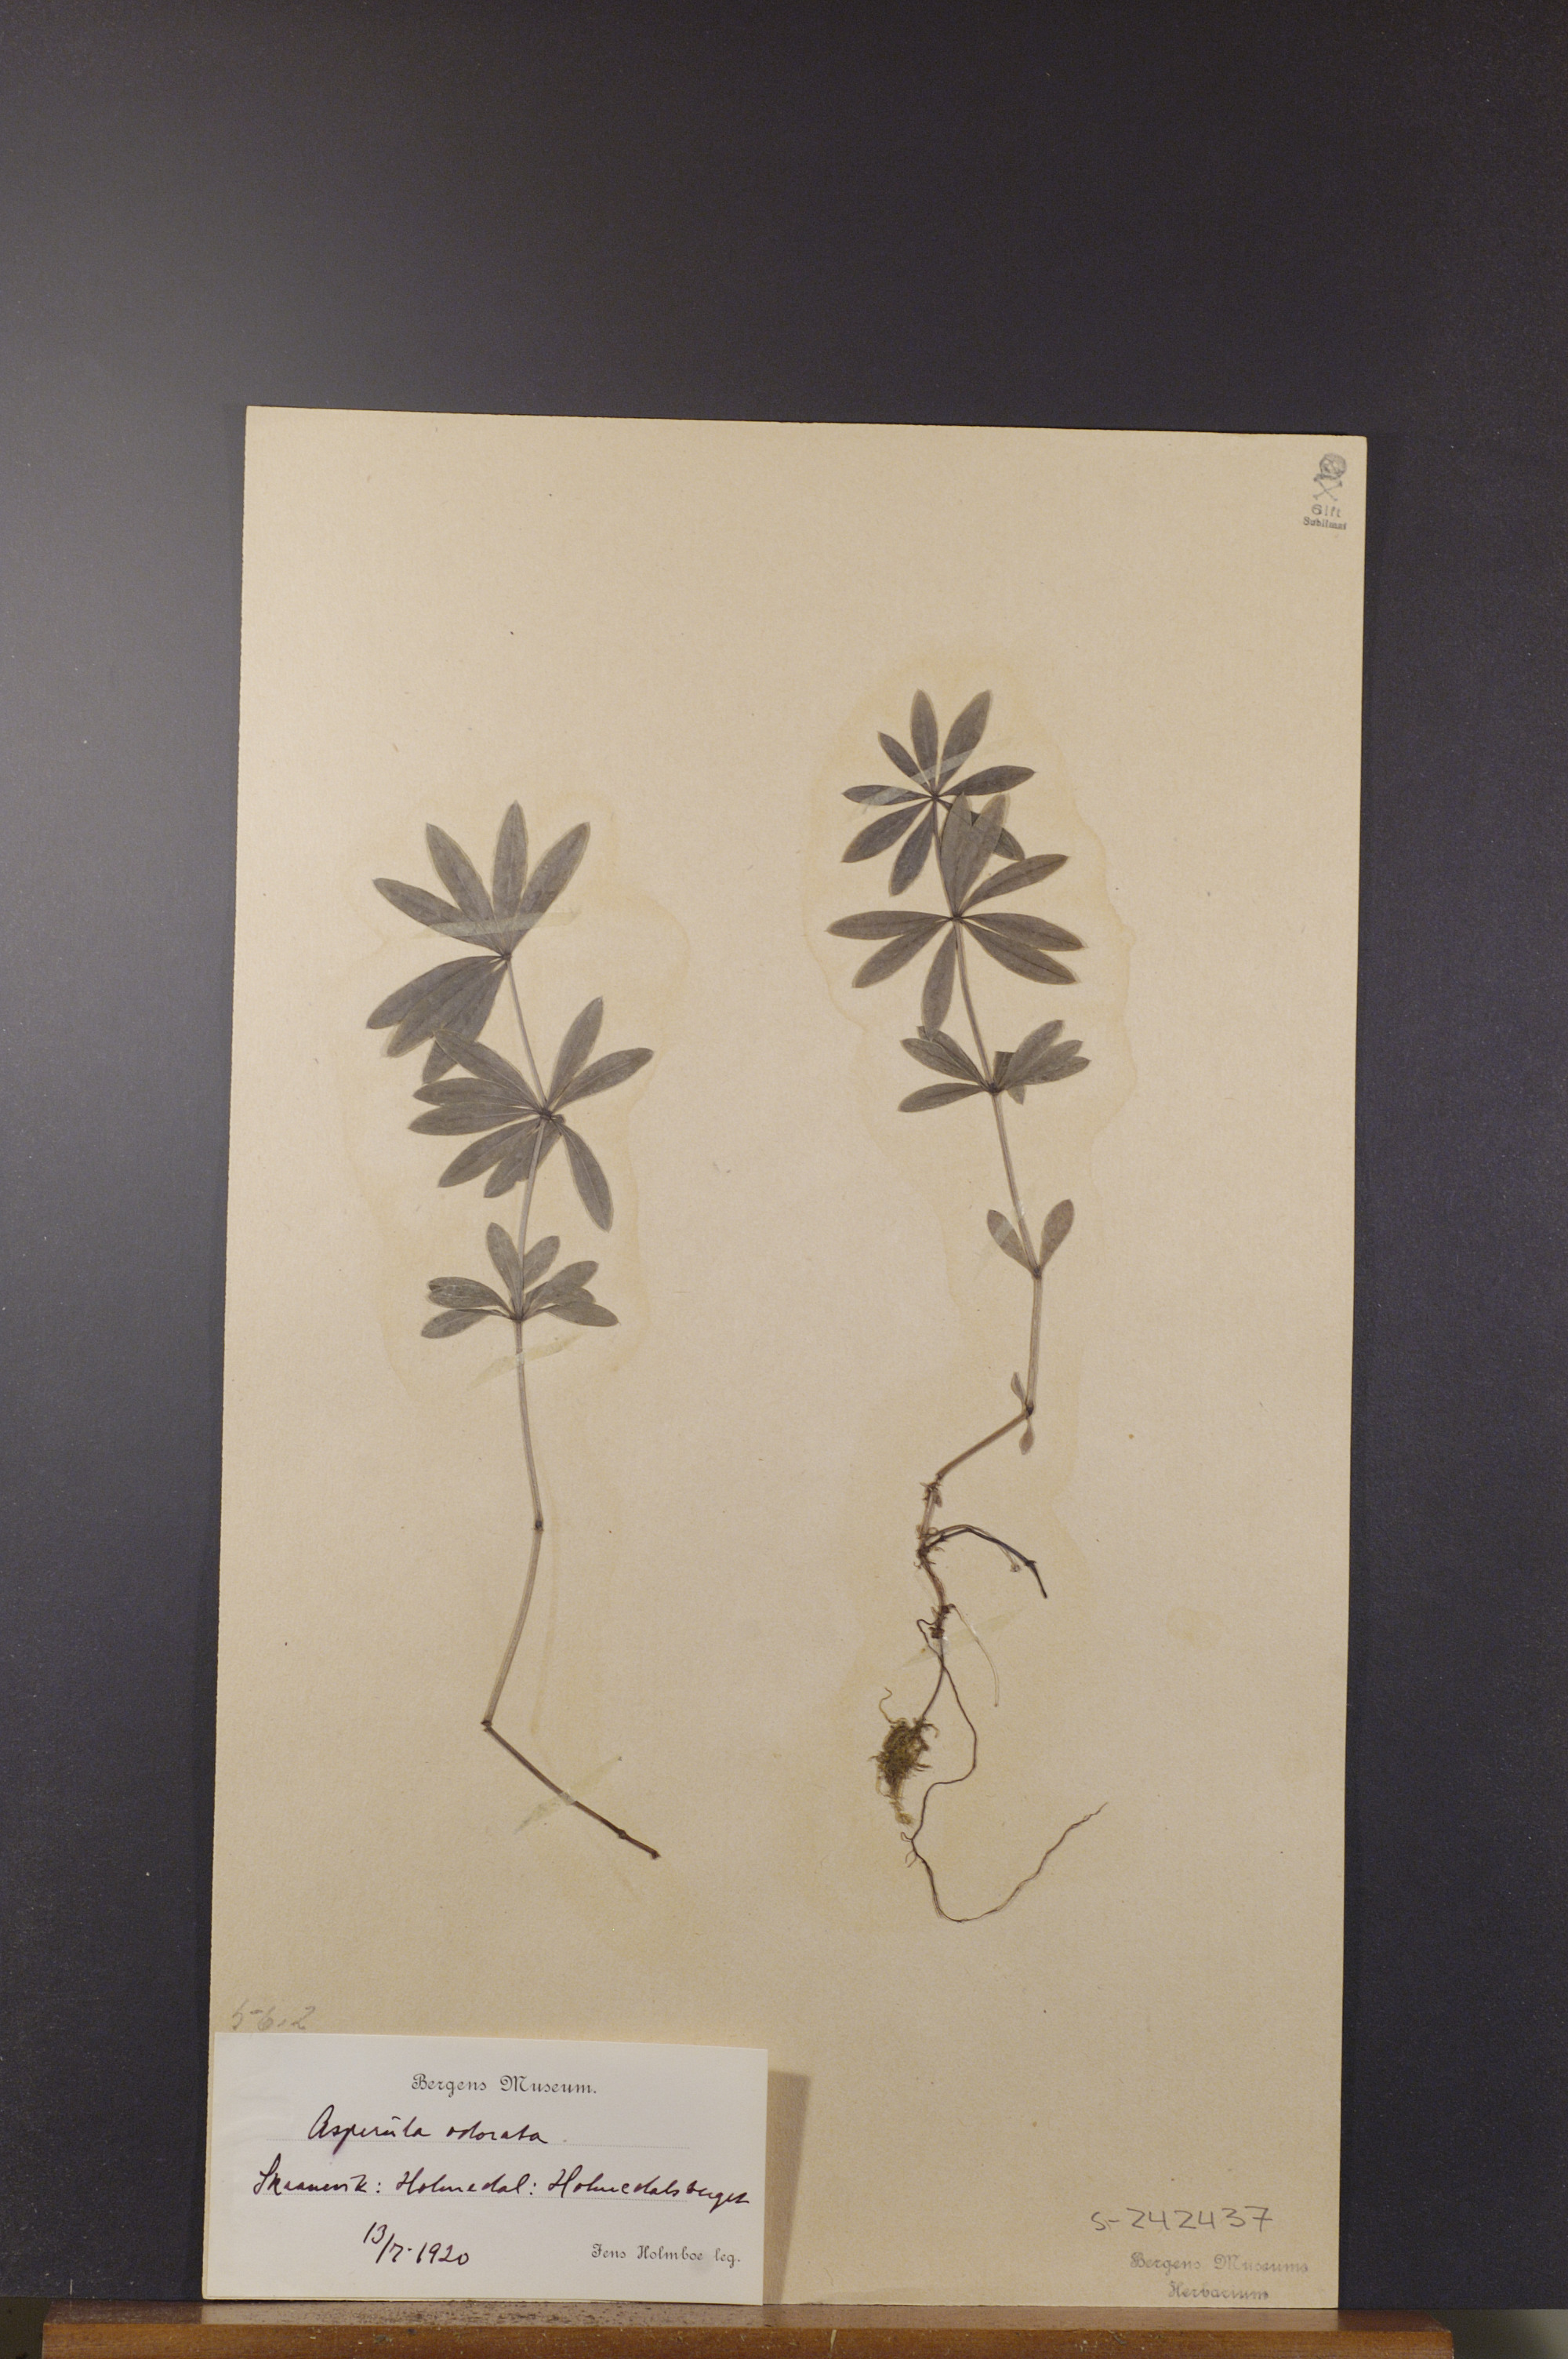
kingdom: Plantae
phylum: Tracheophyta
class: Magnoliopsida
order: Gentianales
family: Rubiaceae
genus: Galium
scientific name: Galium odoratum
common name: Sweet woodruff
